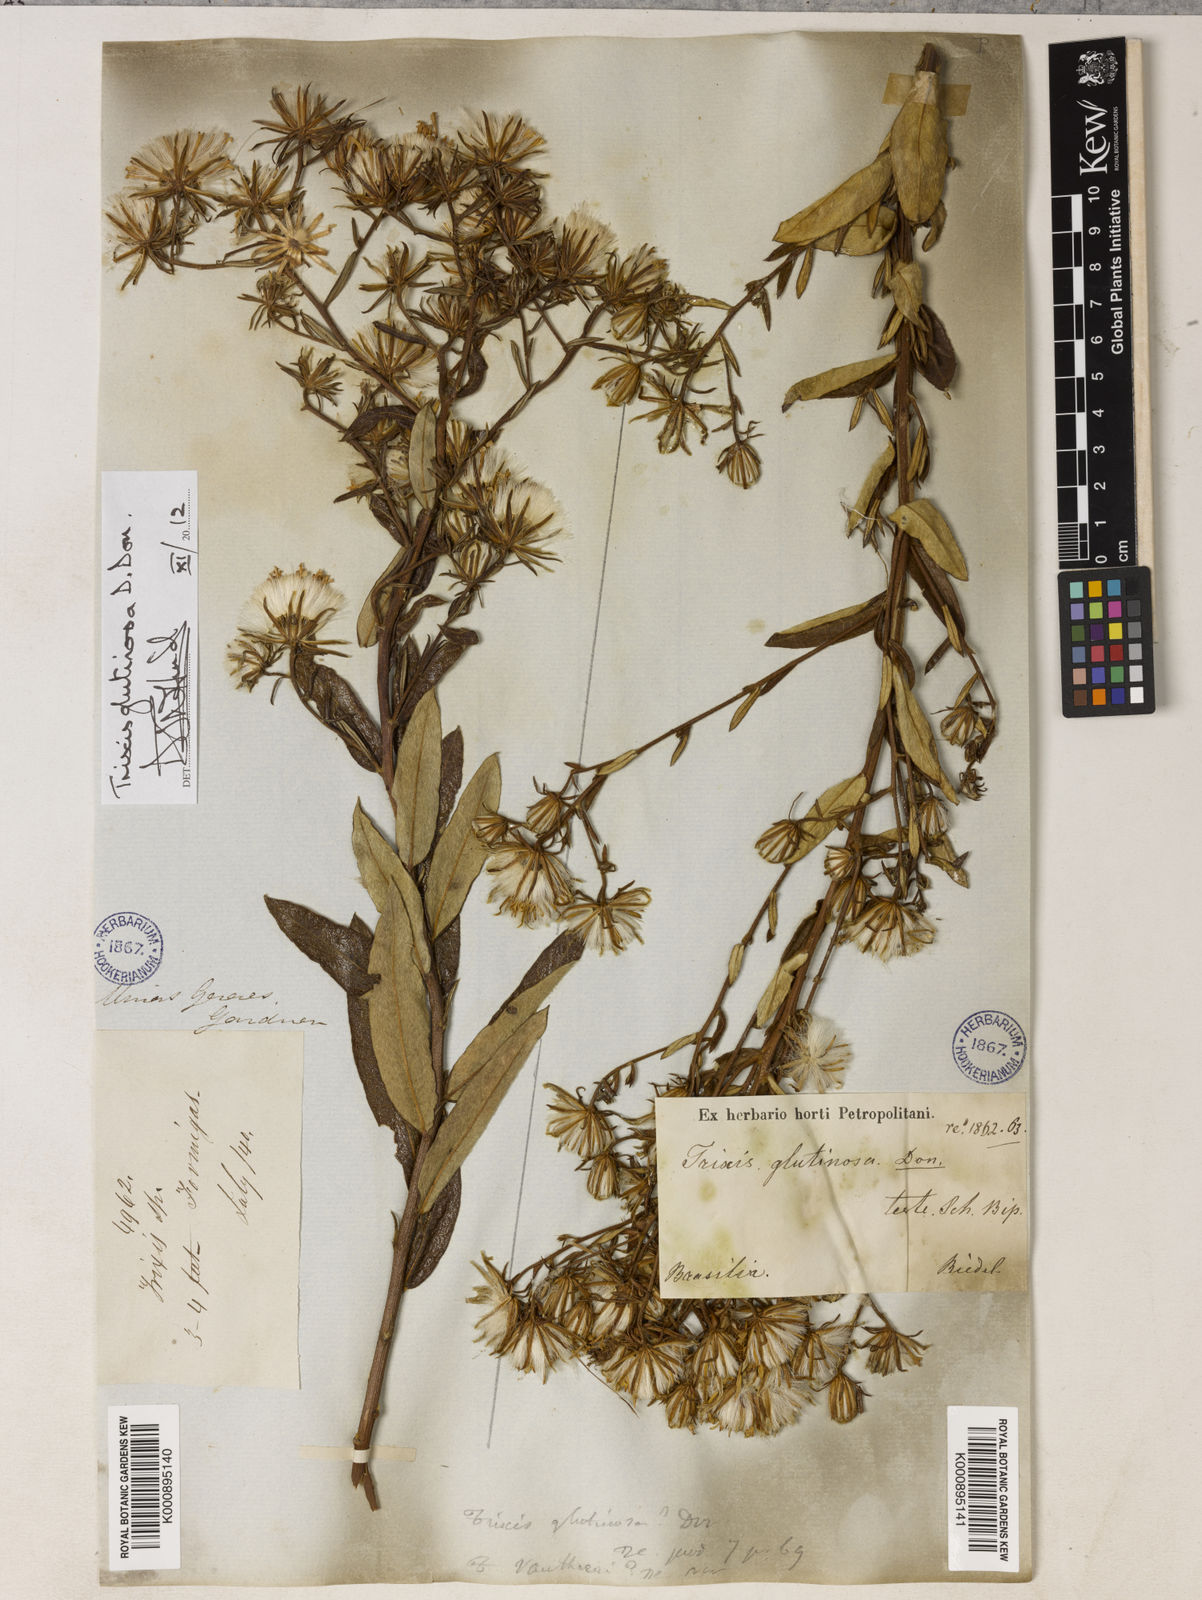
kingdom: Plantae
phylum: Tracheophyta
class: Magnoliopsida
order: Asterales
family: Asteraceae
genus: Trixis
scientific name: Trixis glutinosa
